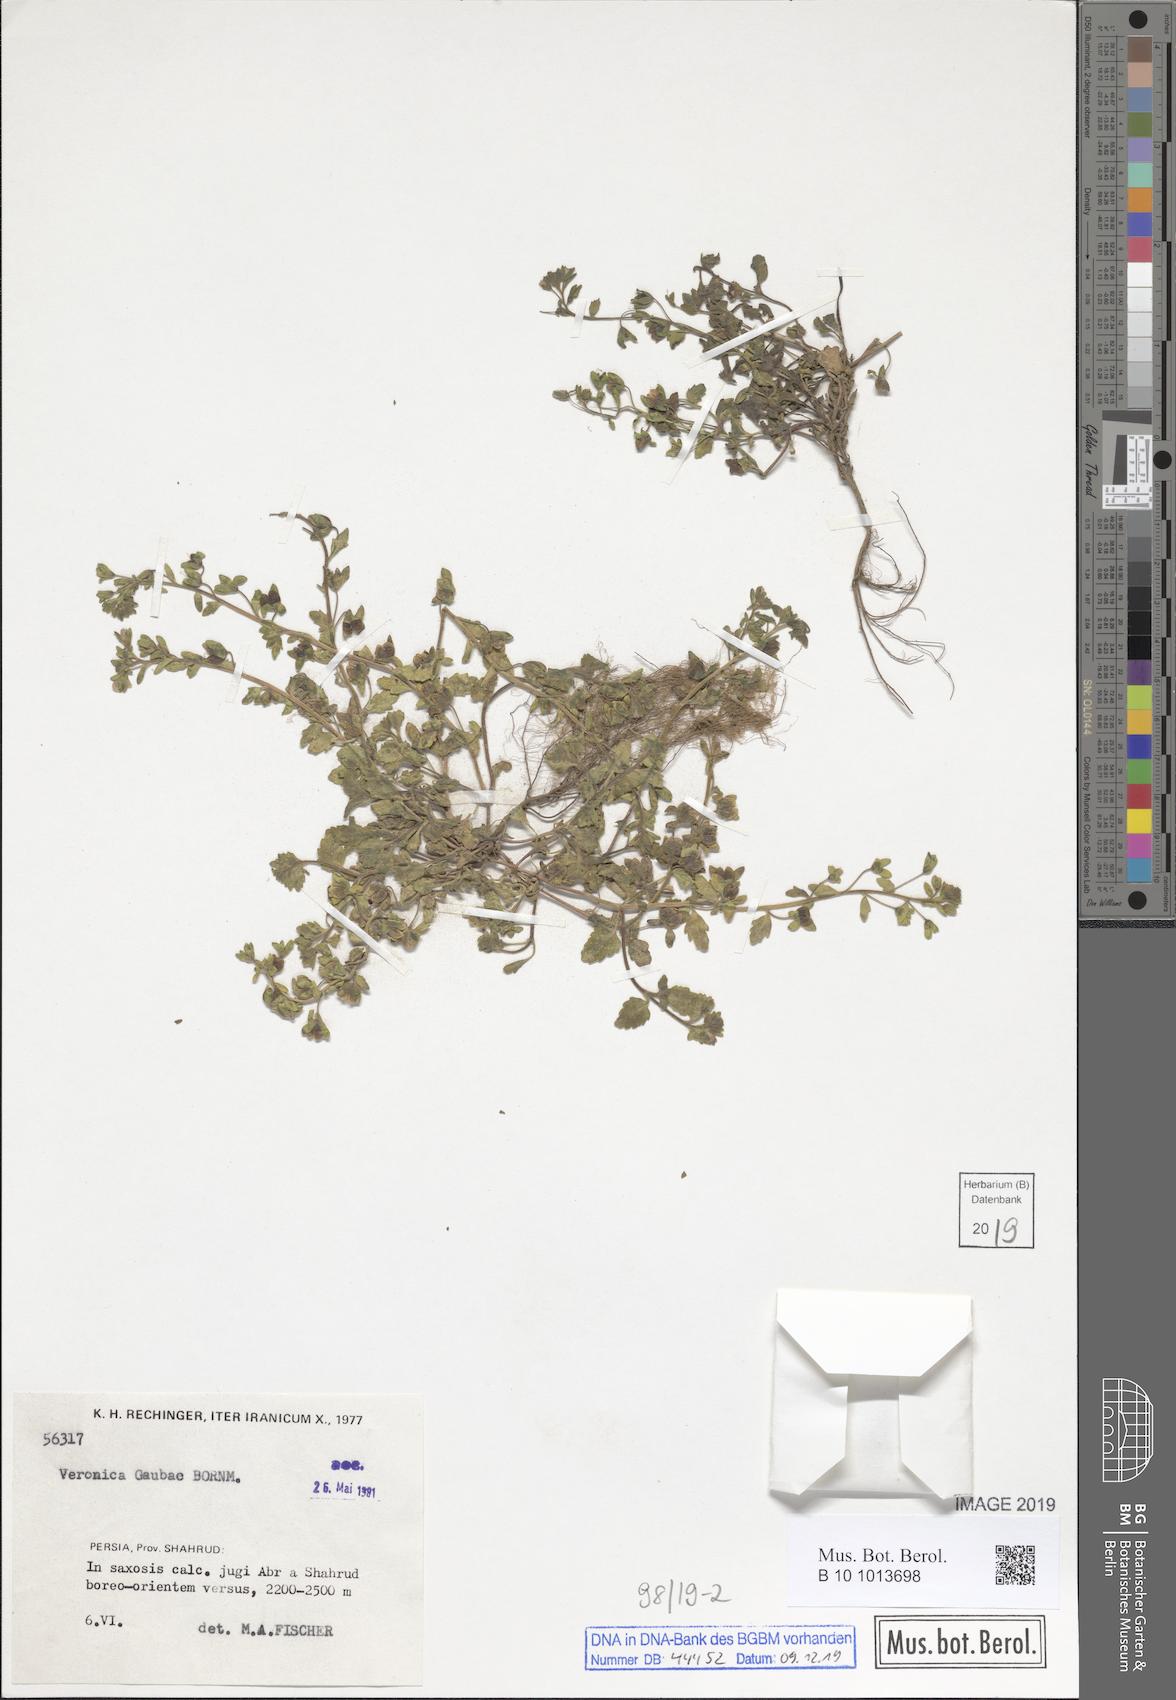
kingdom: Plantae
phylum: Tracheophyta
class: Magnoliopsida
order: Lamiales
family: Plantaginaceae
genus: Veronica
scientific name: Veronica gaubae
